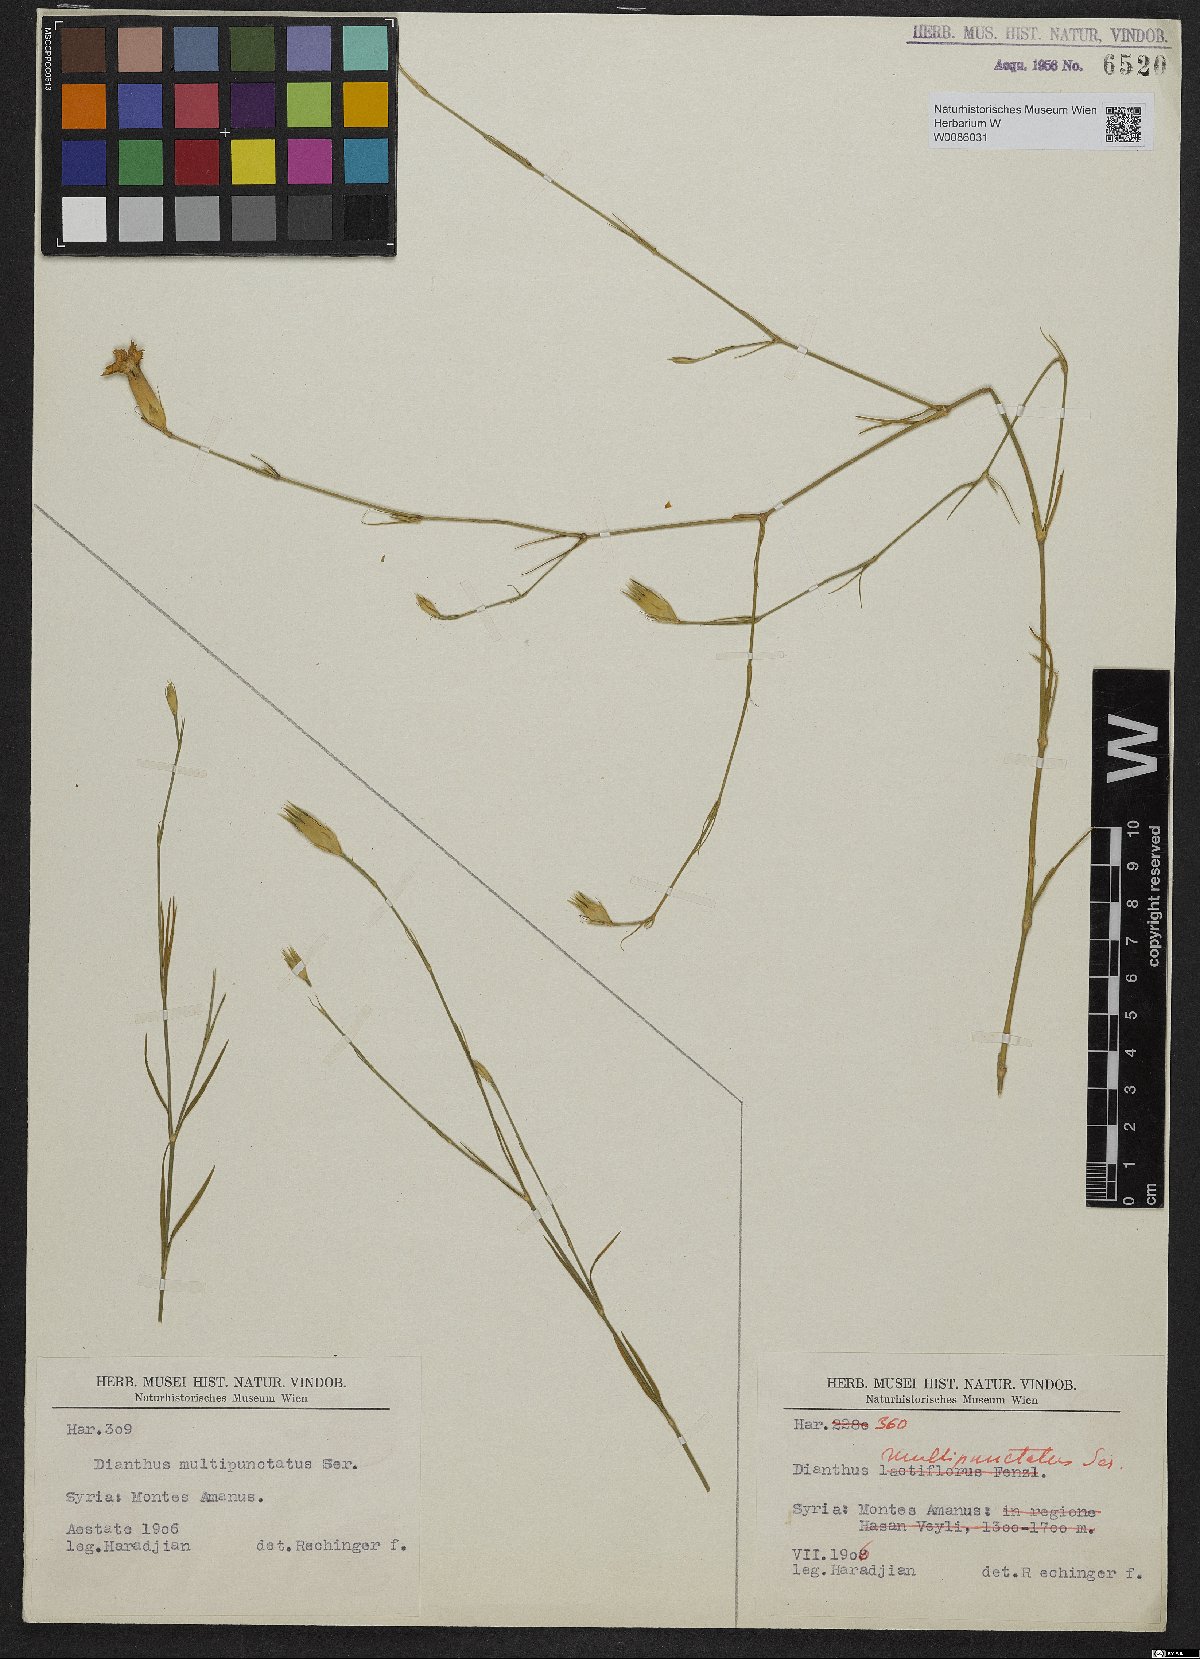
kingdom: Plantae
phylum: Tracheophyta
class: Magnoliopsida
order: Caryophyllales
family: Caryophyllaceae
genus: Dianthus
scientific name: Dianthus strictus
